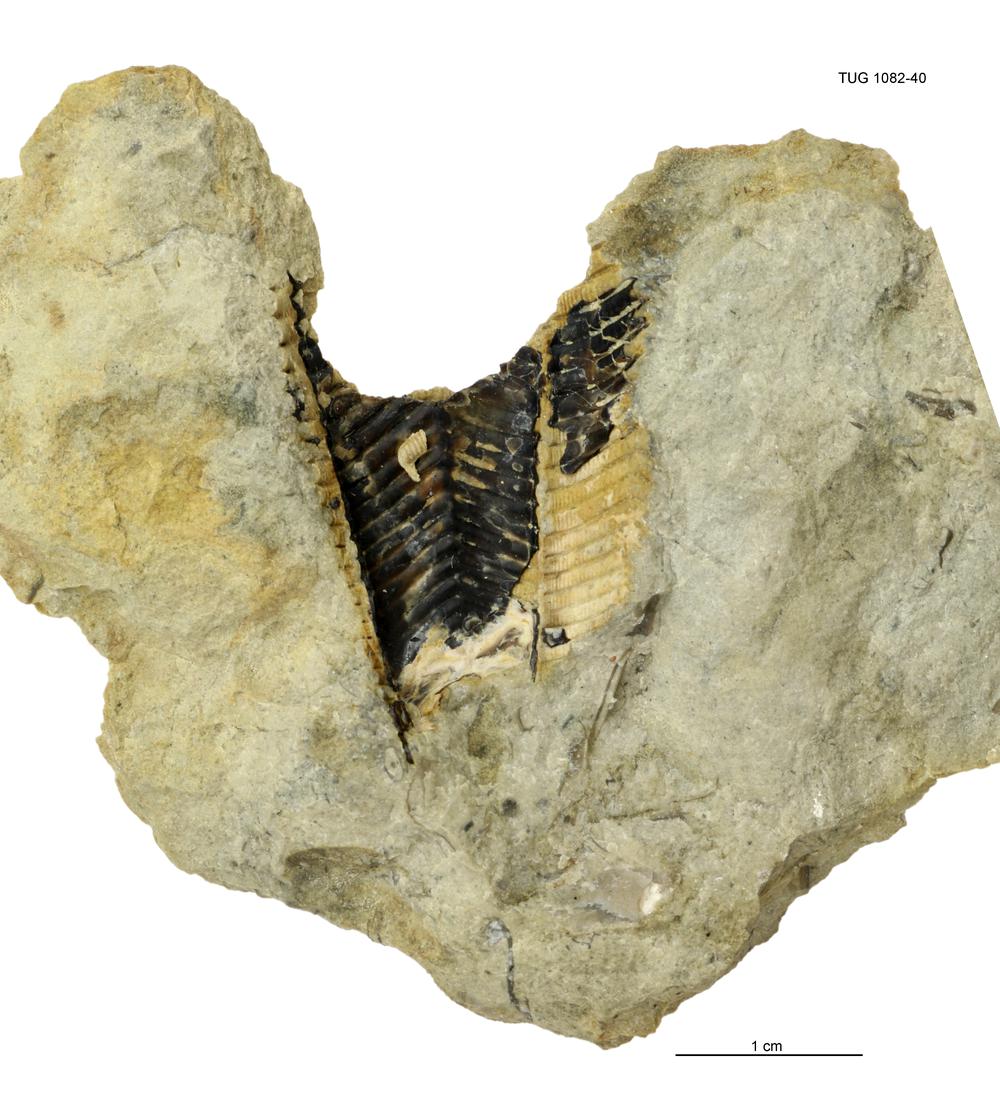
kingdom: Animalia
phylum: Cnidaria
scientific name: Cnidaria
